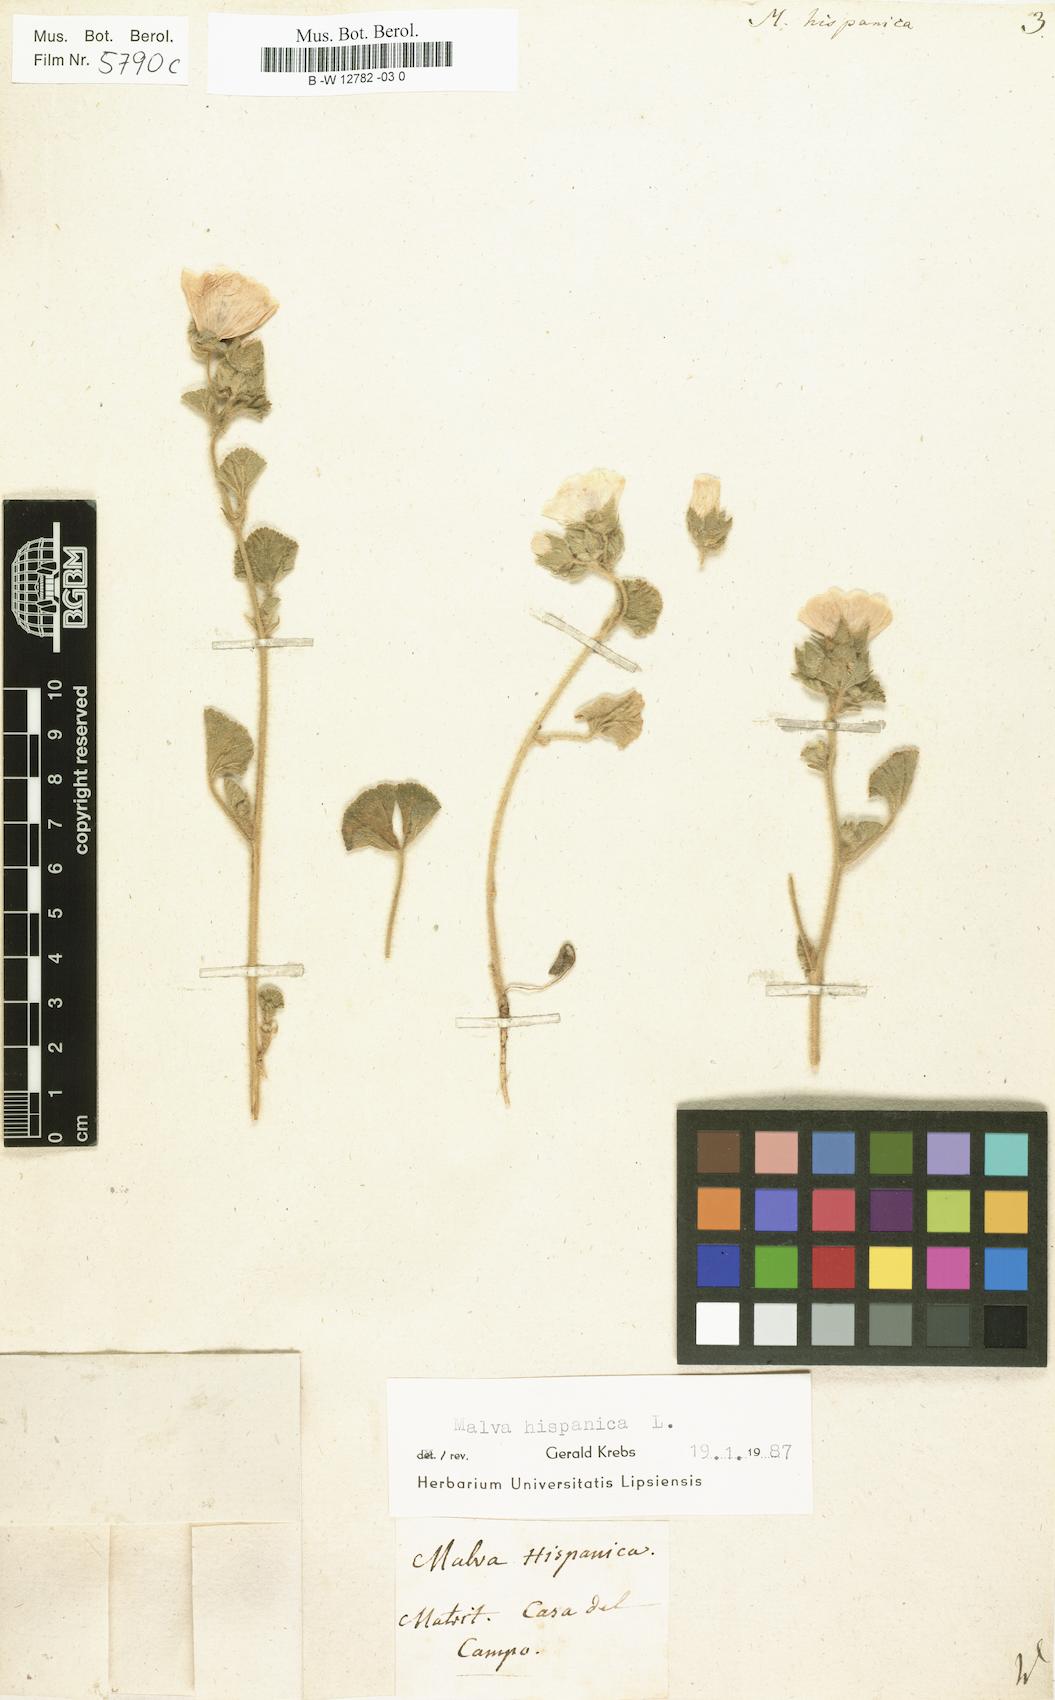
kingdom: Plantae
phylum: Tracheophyta
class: Magnoliopsida
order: Malvales
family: Malvaceae
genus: Malva
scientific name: Malva hispanica
